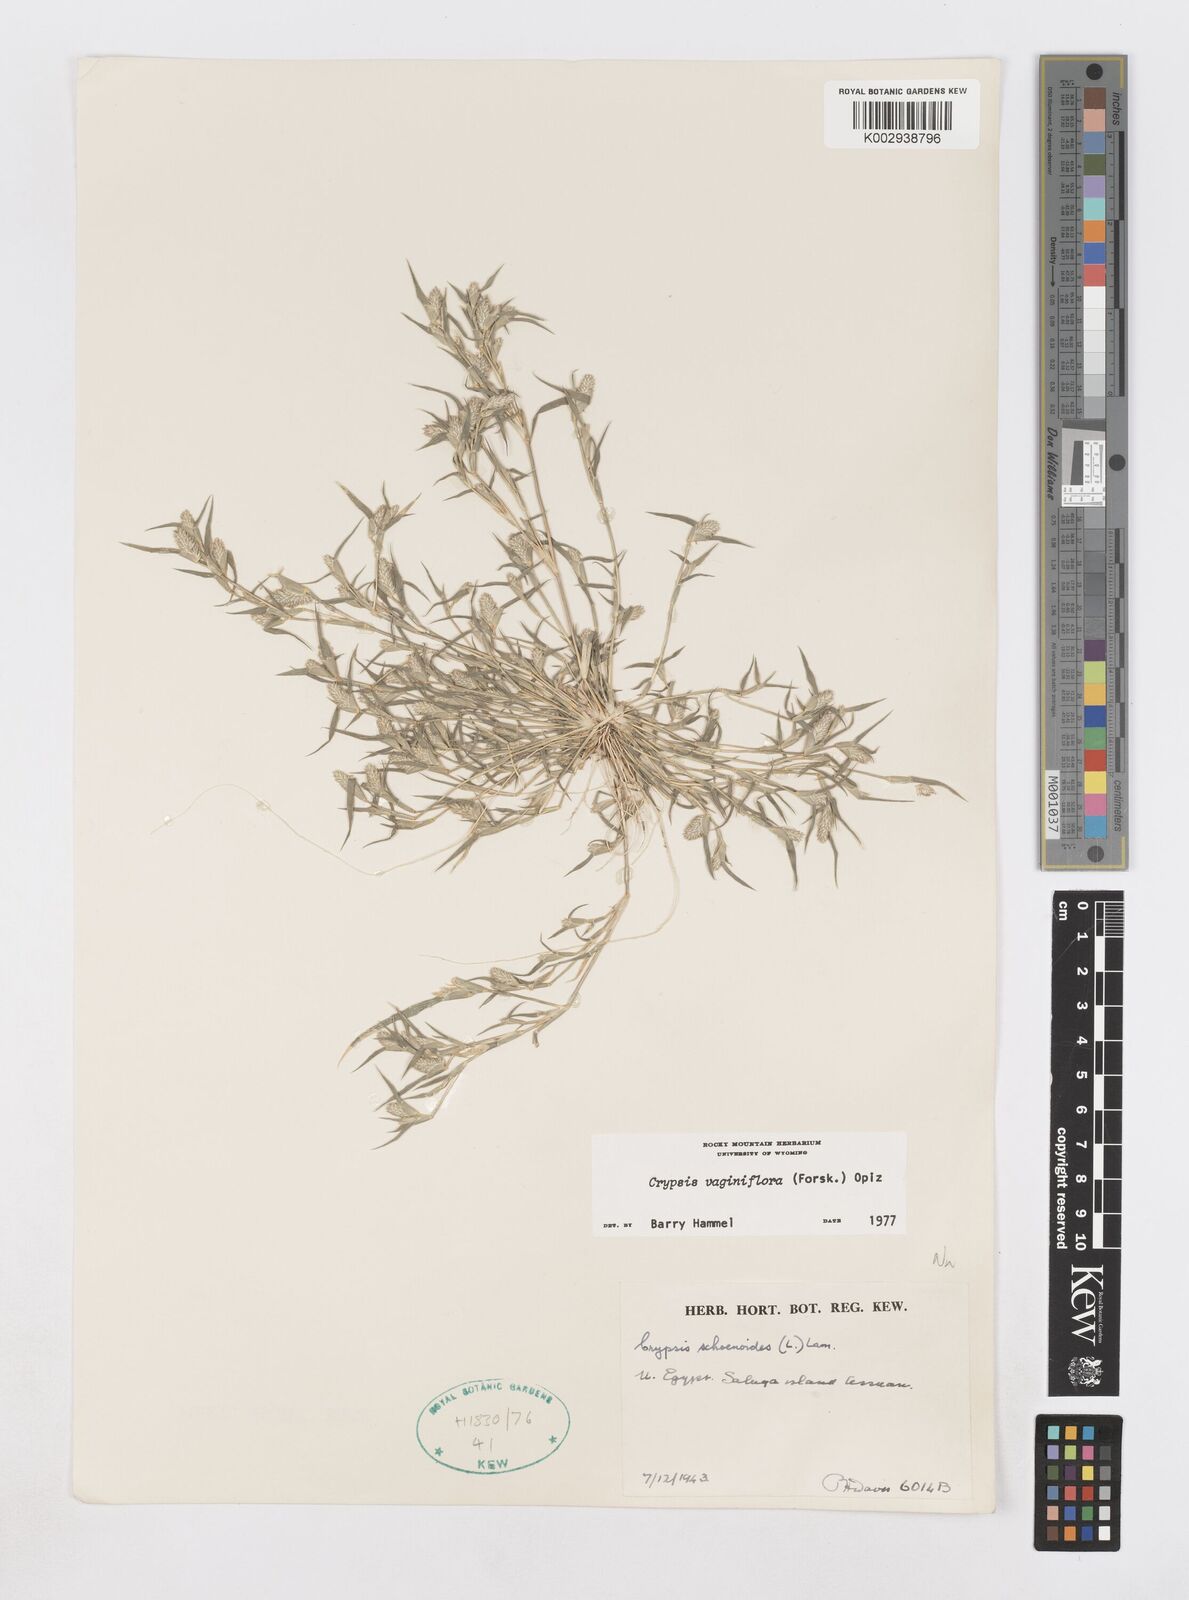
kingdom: Plantae
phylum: Tracheophyta
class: Liliopsida
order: Poales
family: Poaceae
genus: Sporobolus
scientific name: Sporobolus niliacus
